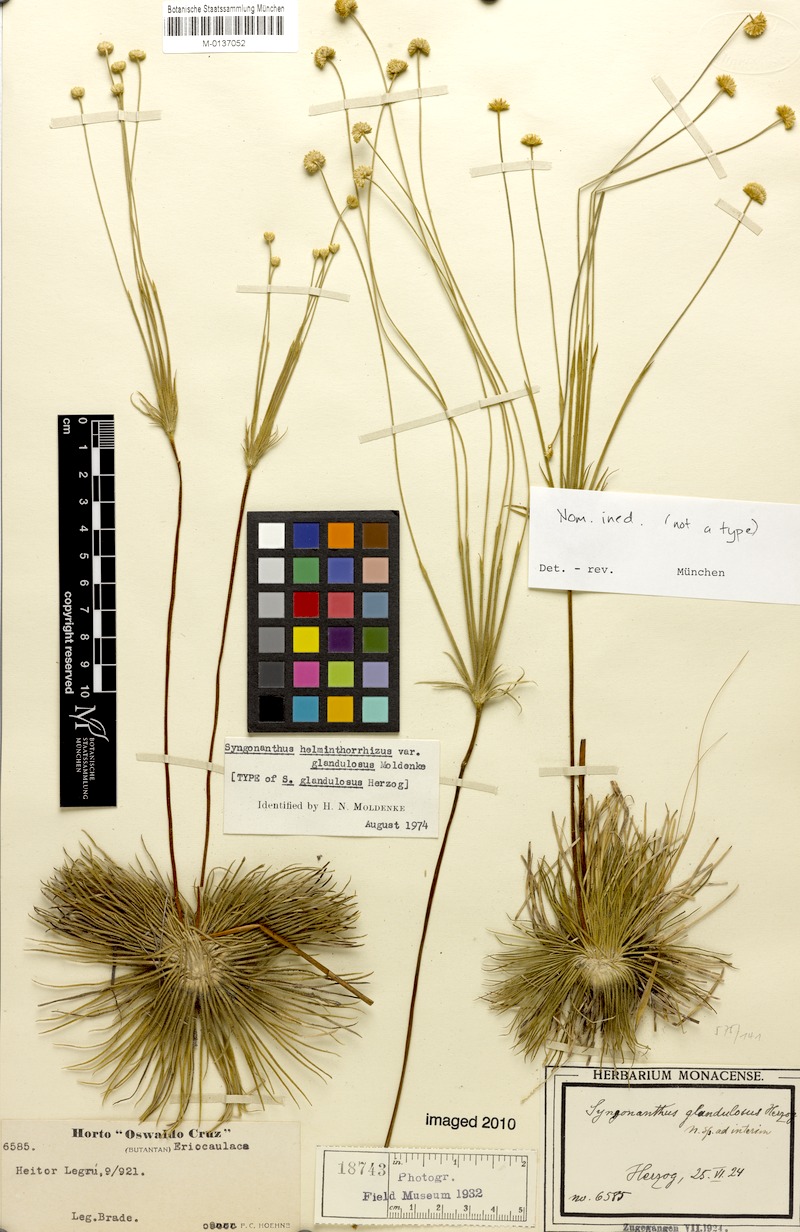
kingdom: Plantae
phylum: Tracheophyta
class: Liliopsida
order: Poales
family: Eriocaulaceae
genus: Syngonanthus
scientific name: Syngonanthus helminthorrhizus
